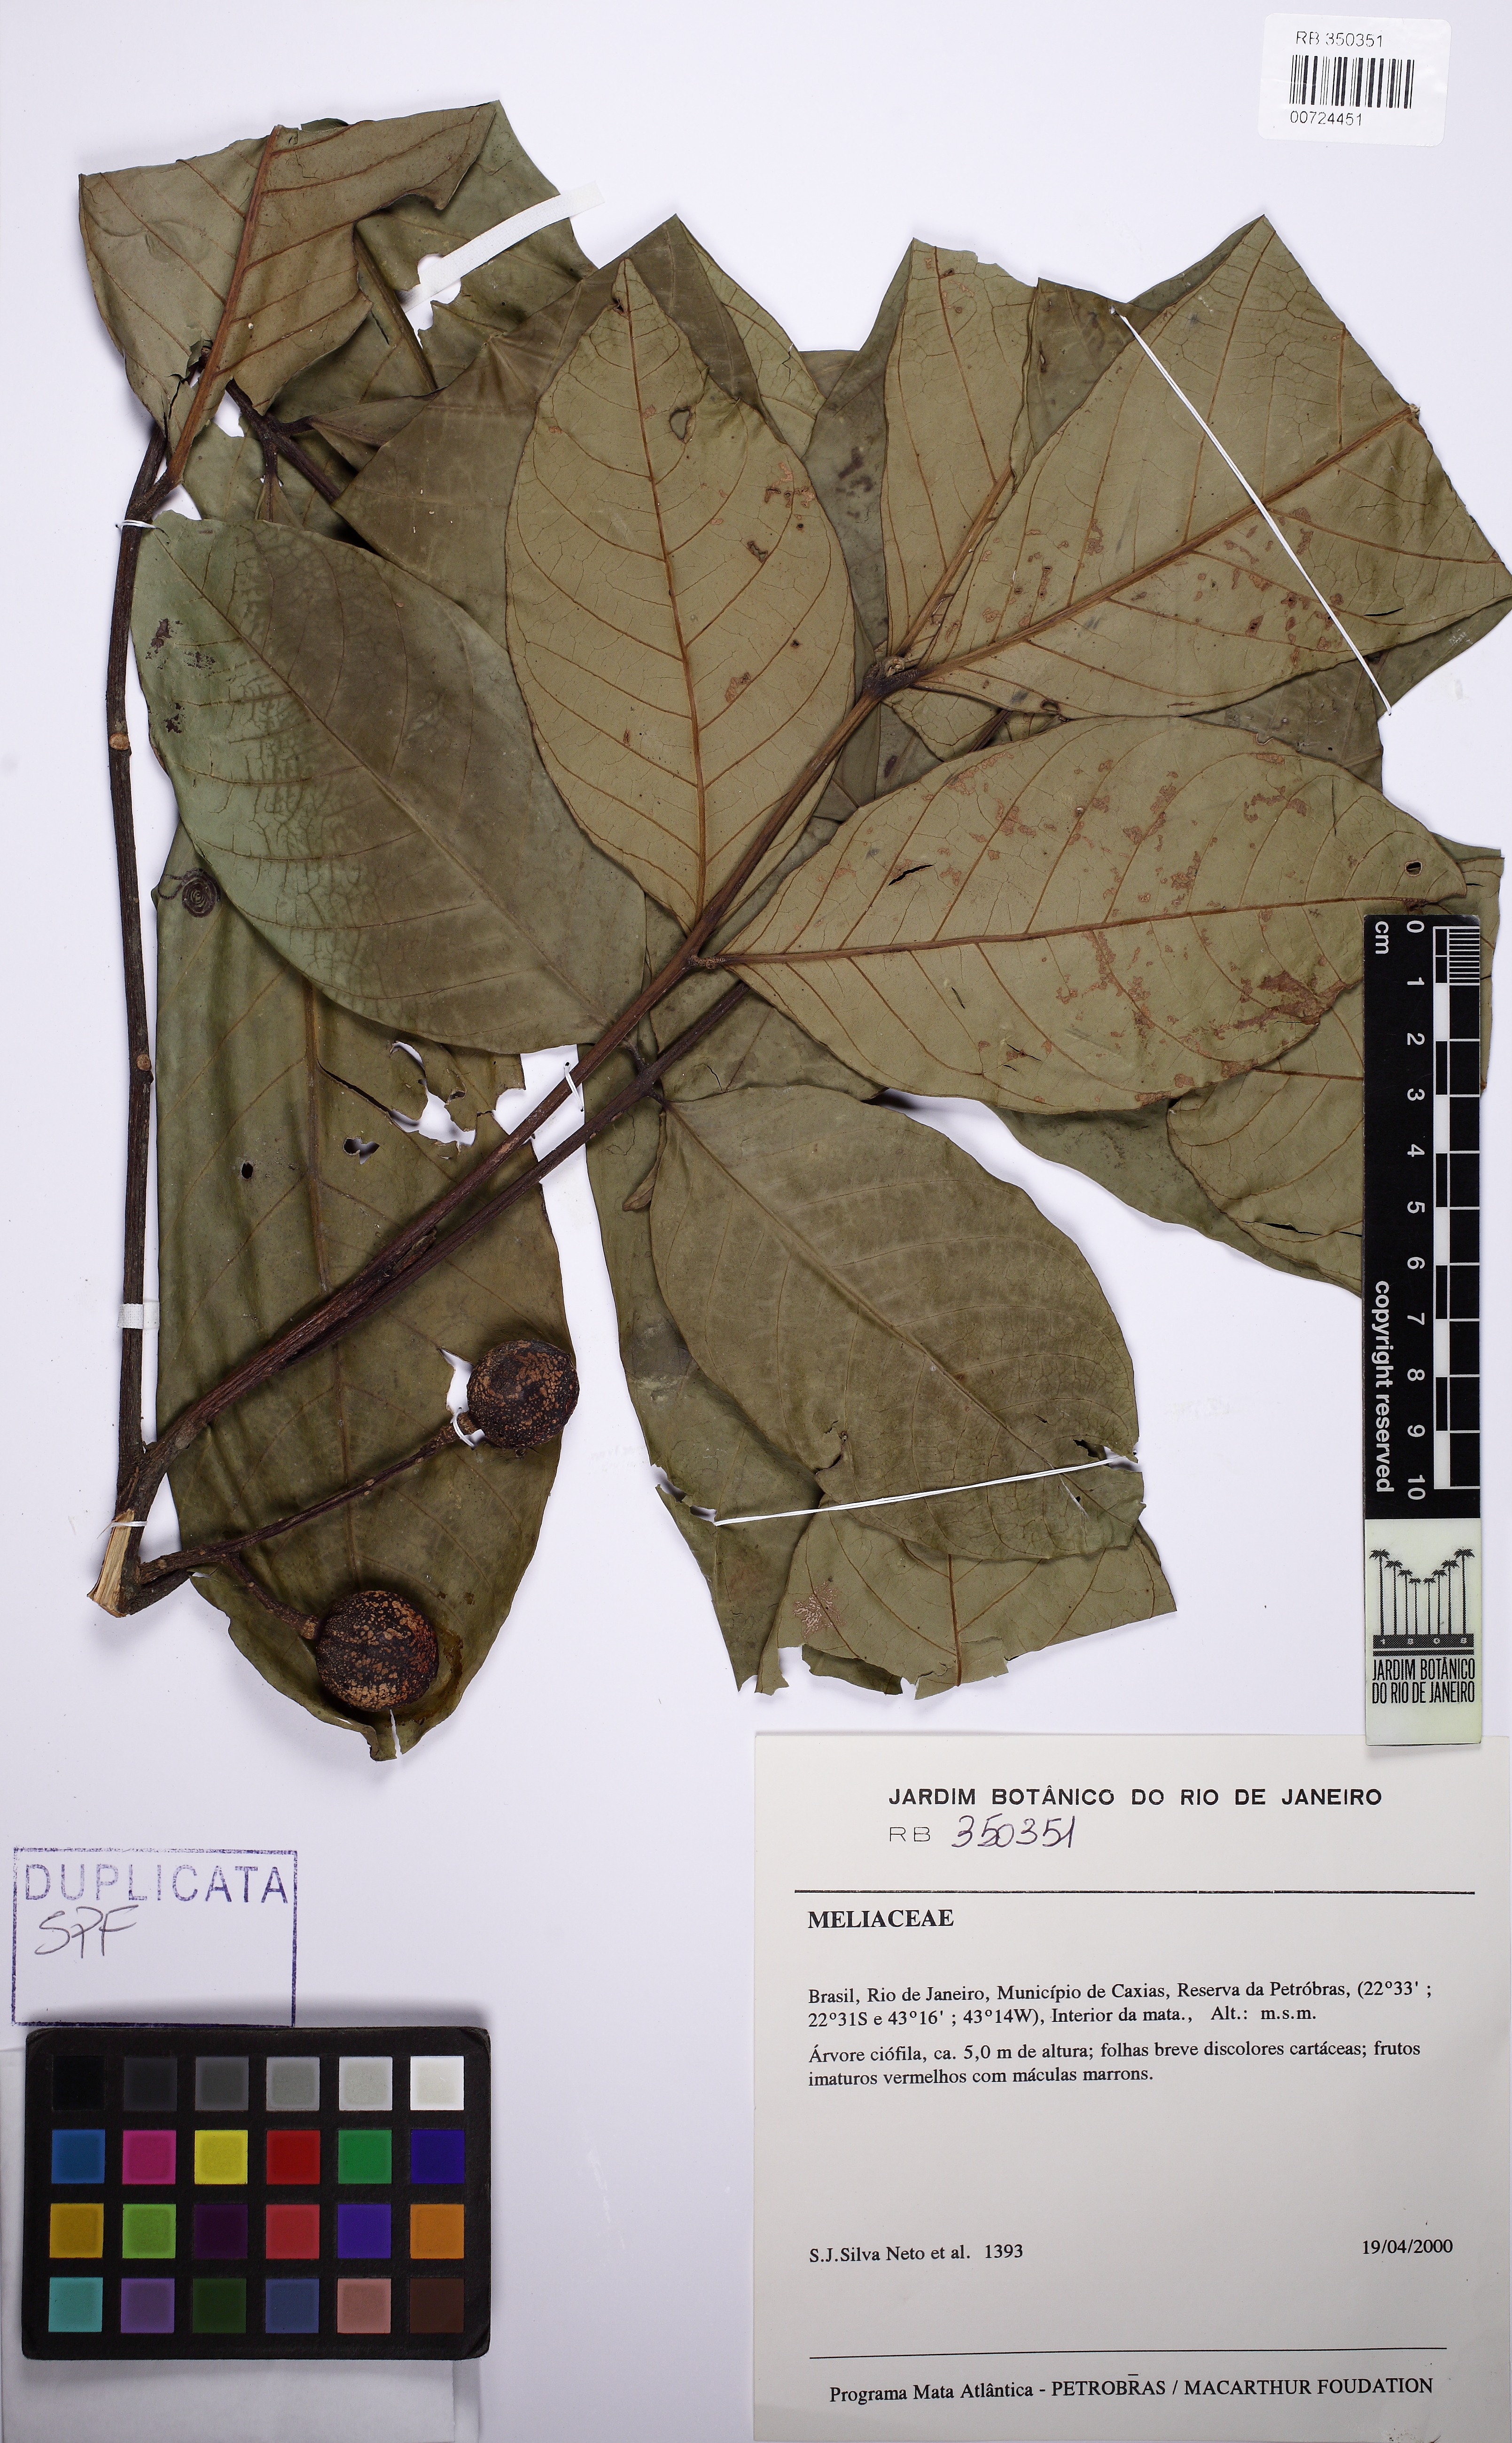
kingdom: Plantae
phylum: Tracheophyta
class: Magnoliopsida
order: Sapindales
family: Meliaceae
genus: Guarea
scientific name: Guarea kunthiana
